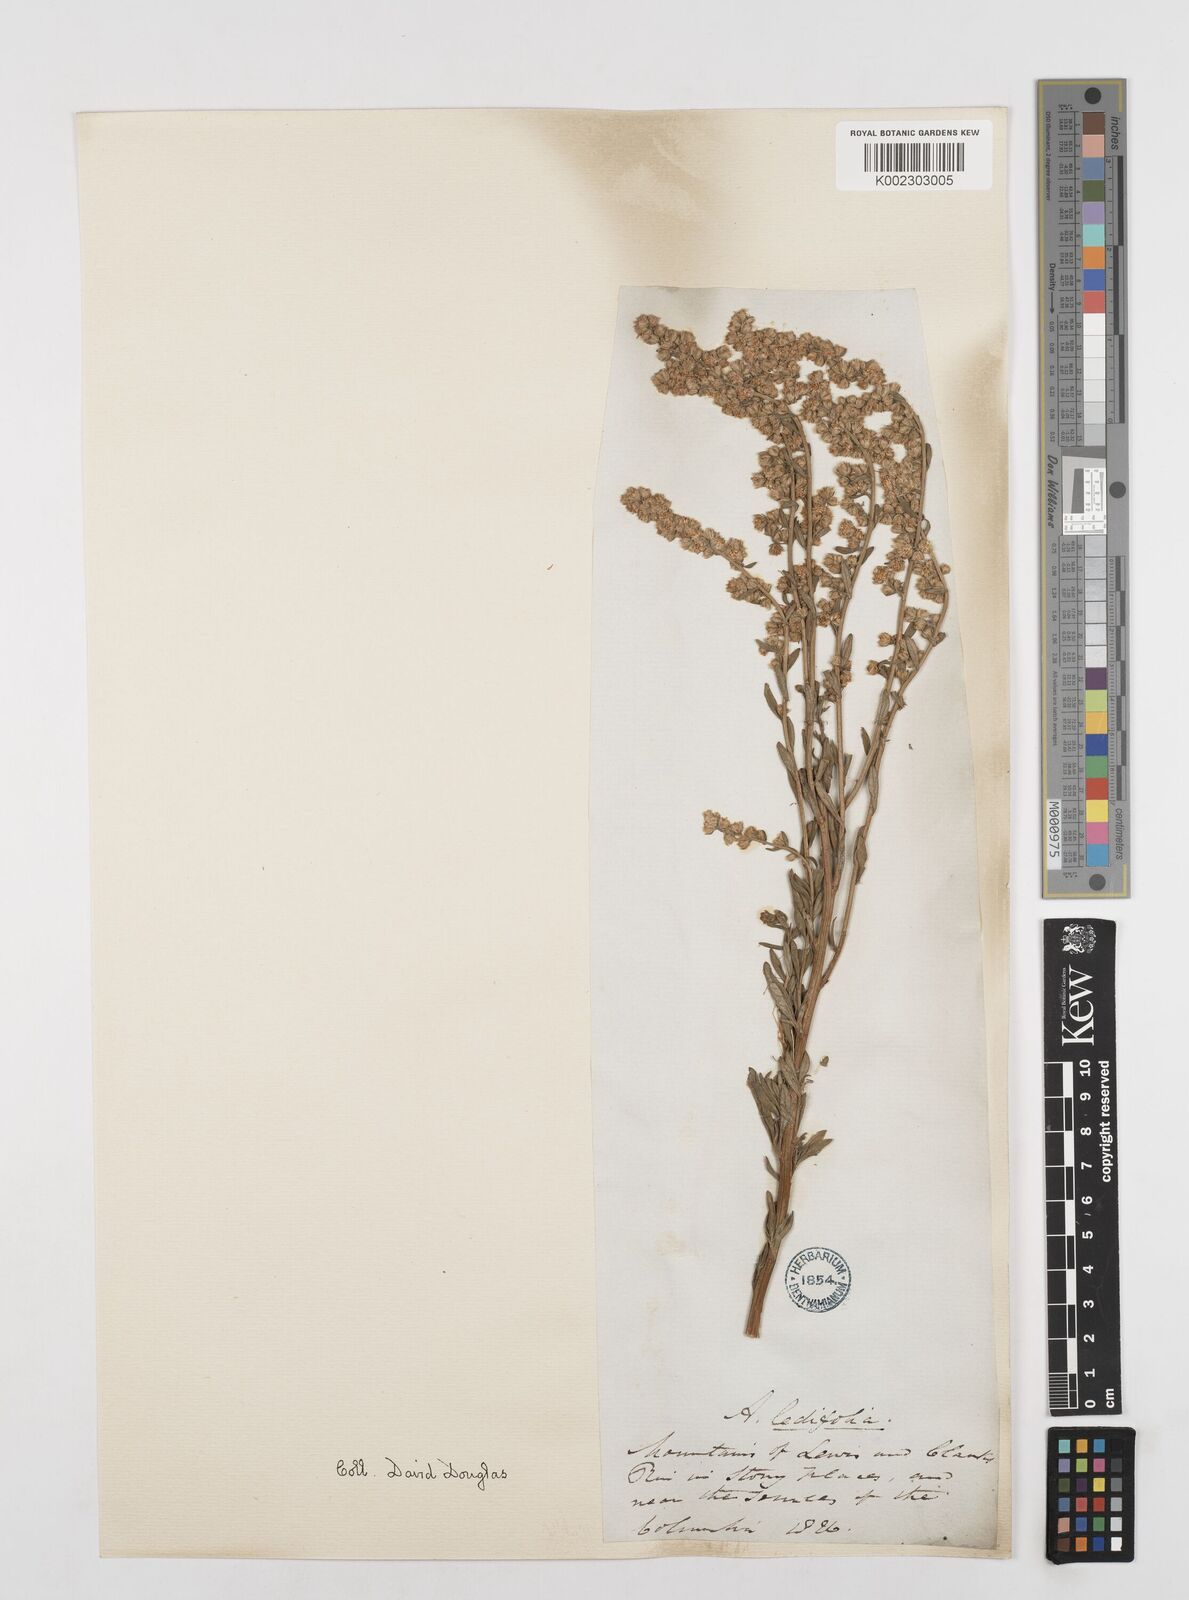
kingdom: Plantae
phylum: Tracheophyta
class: Magnoliopsida
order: Asterales
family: Asteraceae
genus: Artemisia
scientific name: Artemisia michauxiana
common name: Lemon sagewort
